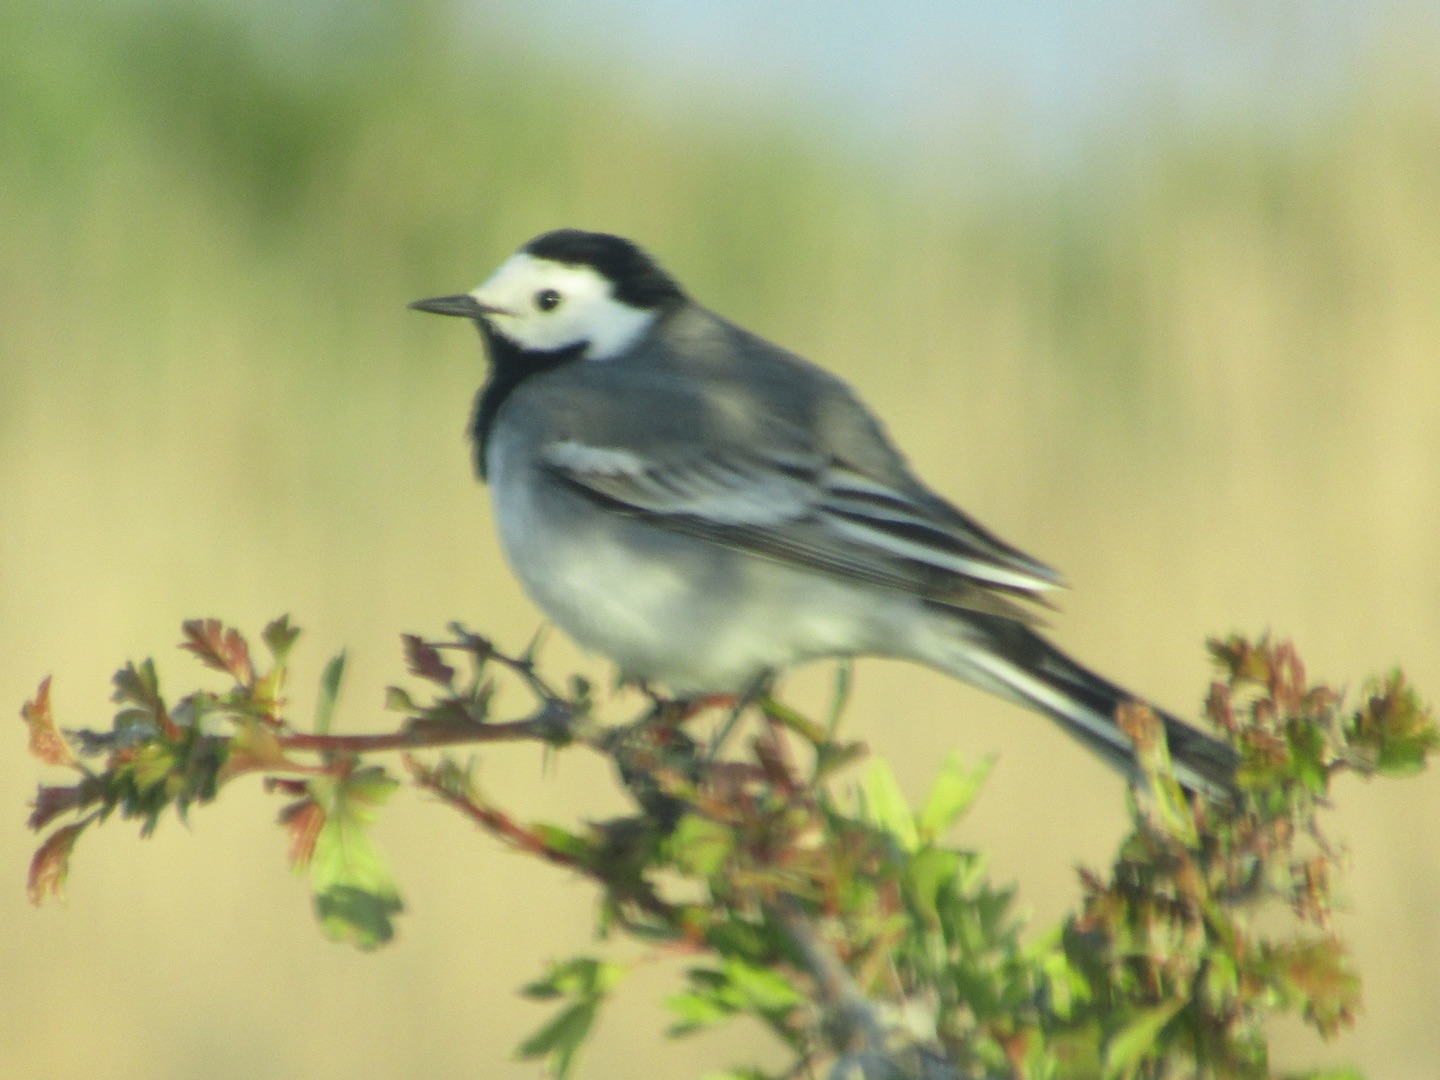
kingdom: Animalia
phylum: Chordata
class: Aves
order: Passeriformes
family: Motacillidae
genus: Motacilla
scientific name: Motacilla alba
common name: Hvid vipstjert
